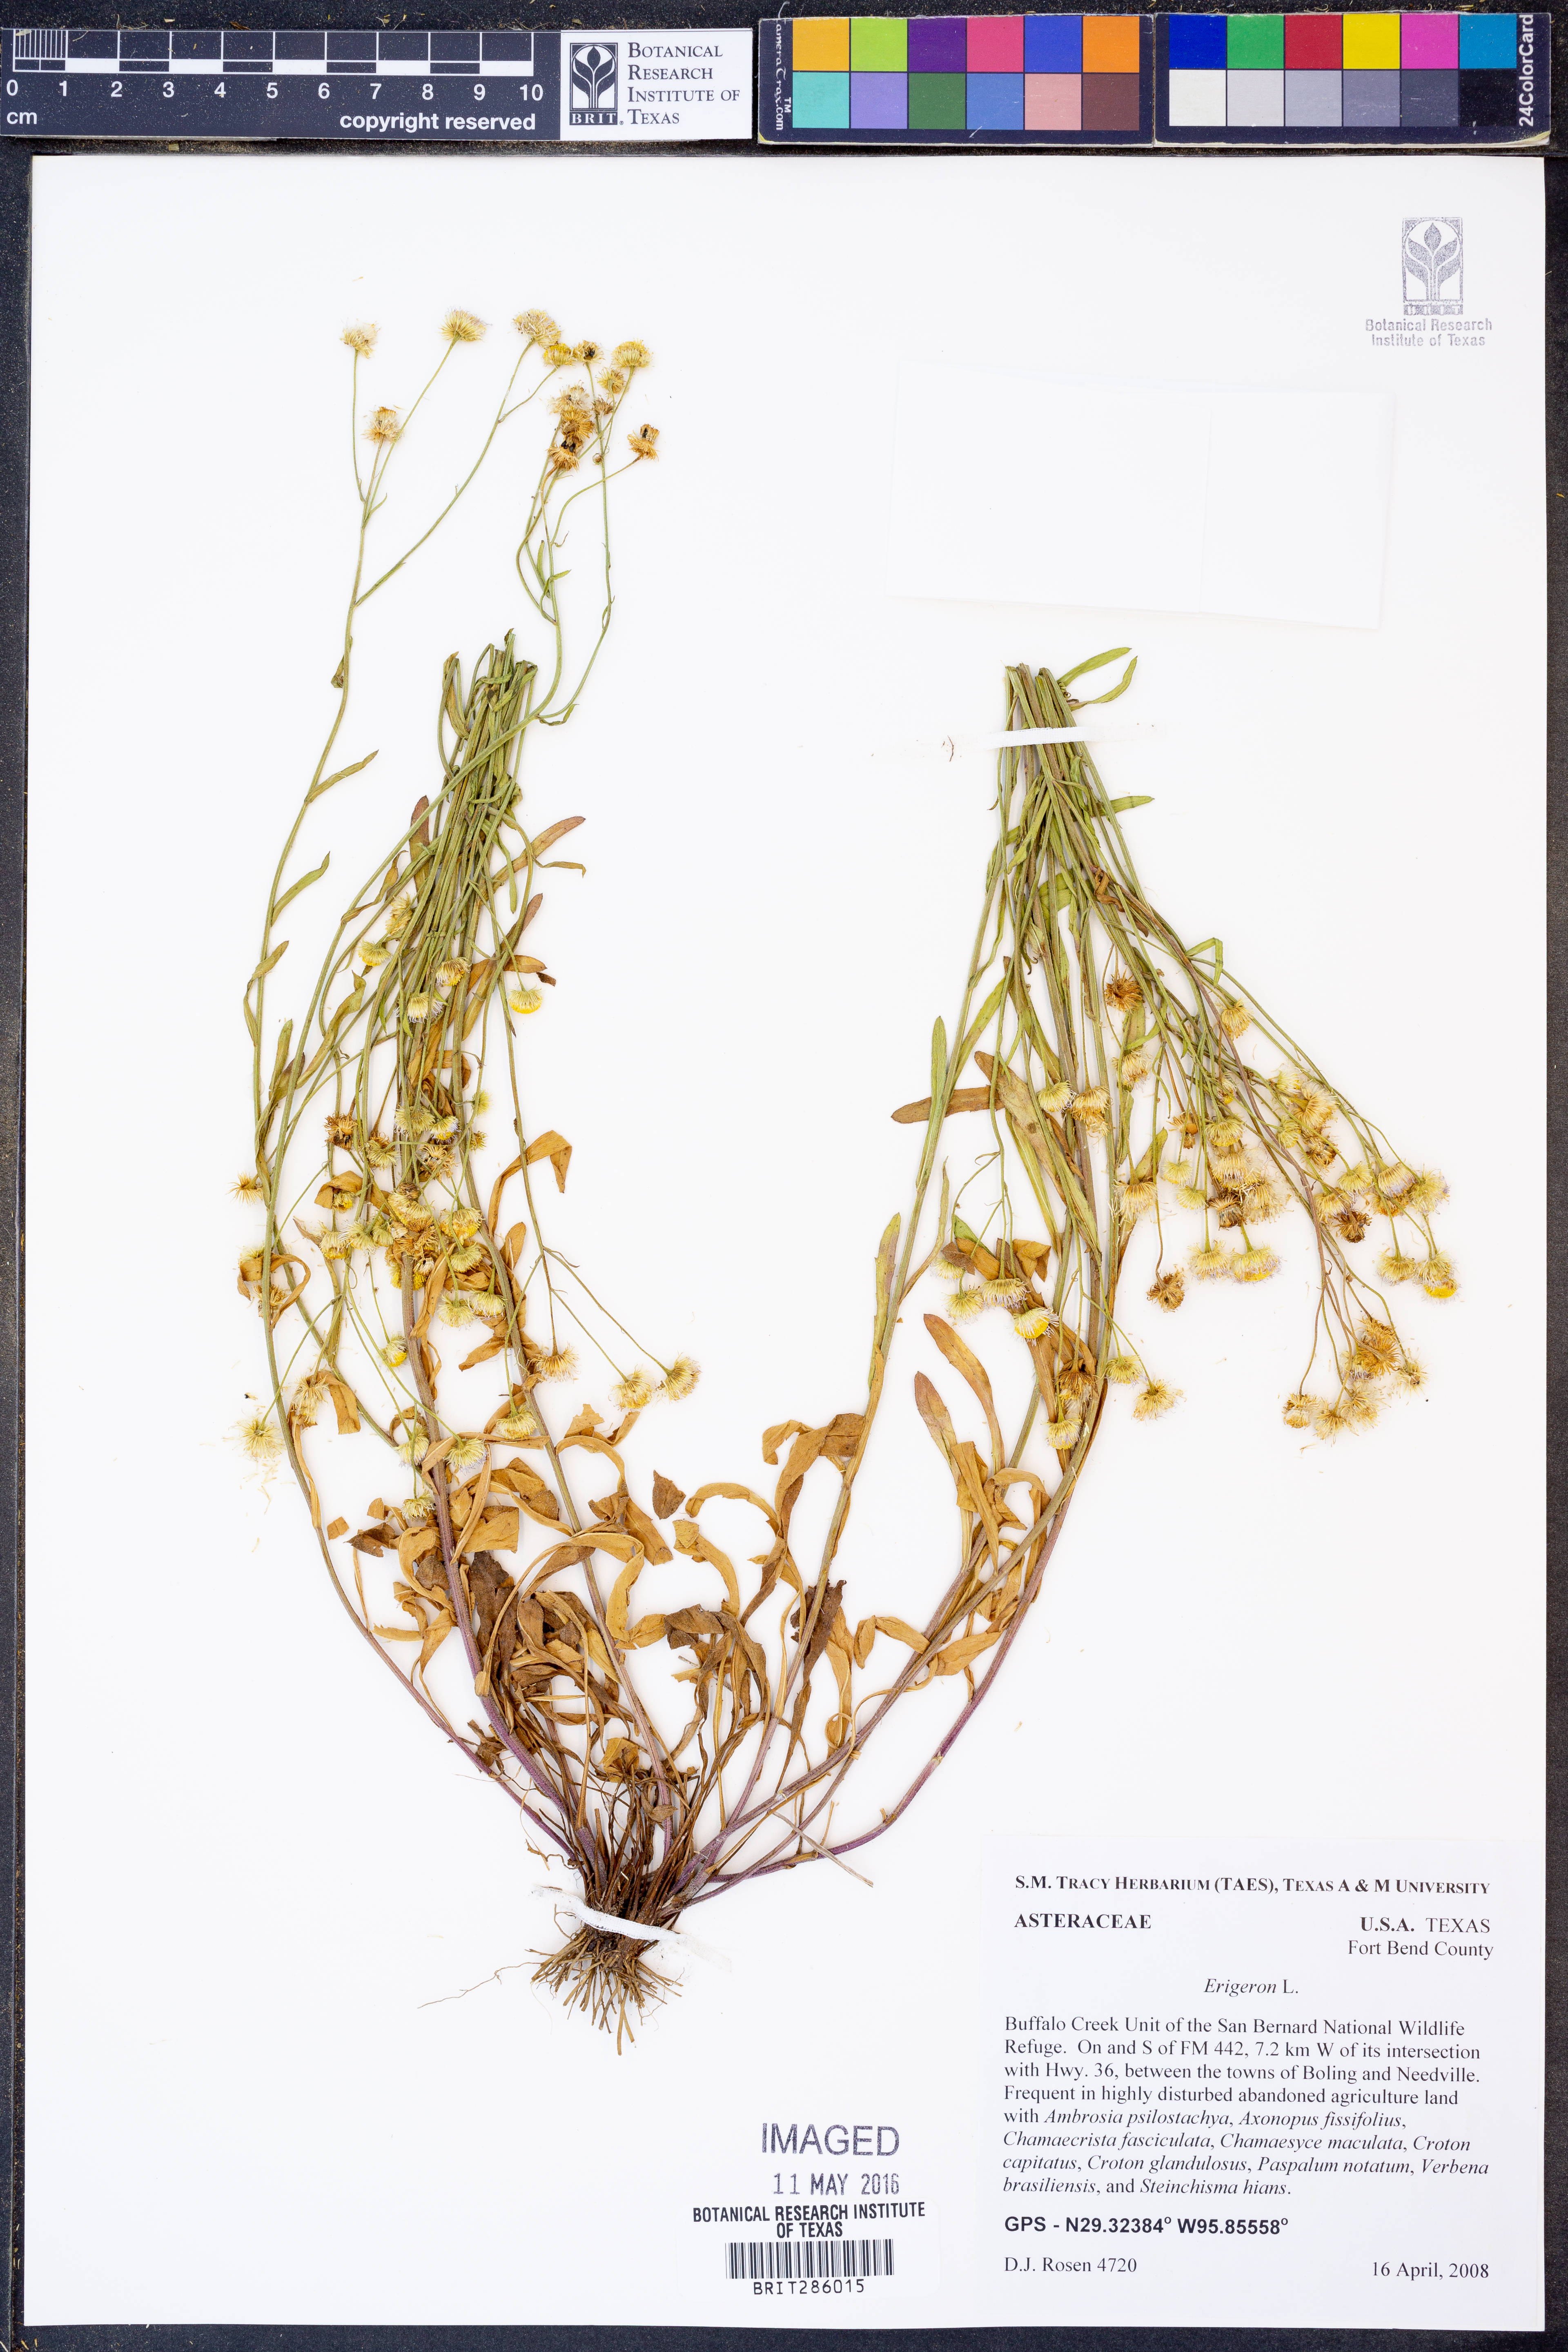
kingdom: Plantae
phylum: Tracheophyta
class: Magnoliopsida
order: Asterales
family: Asteraceae
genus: Erigeron
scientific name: Erigeron
